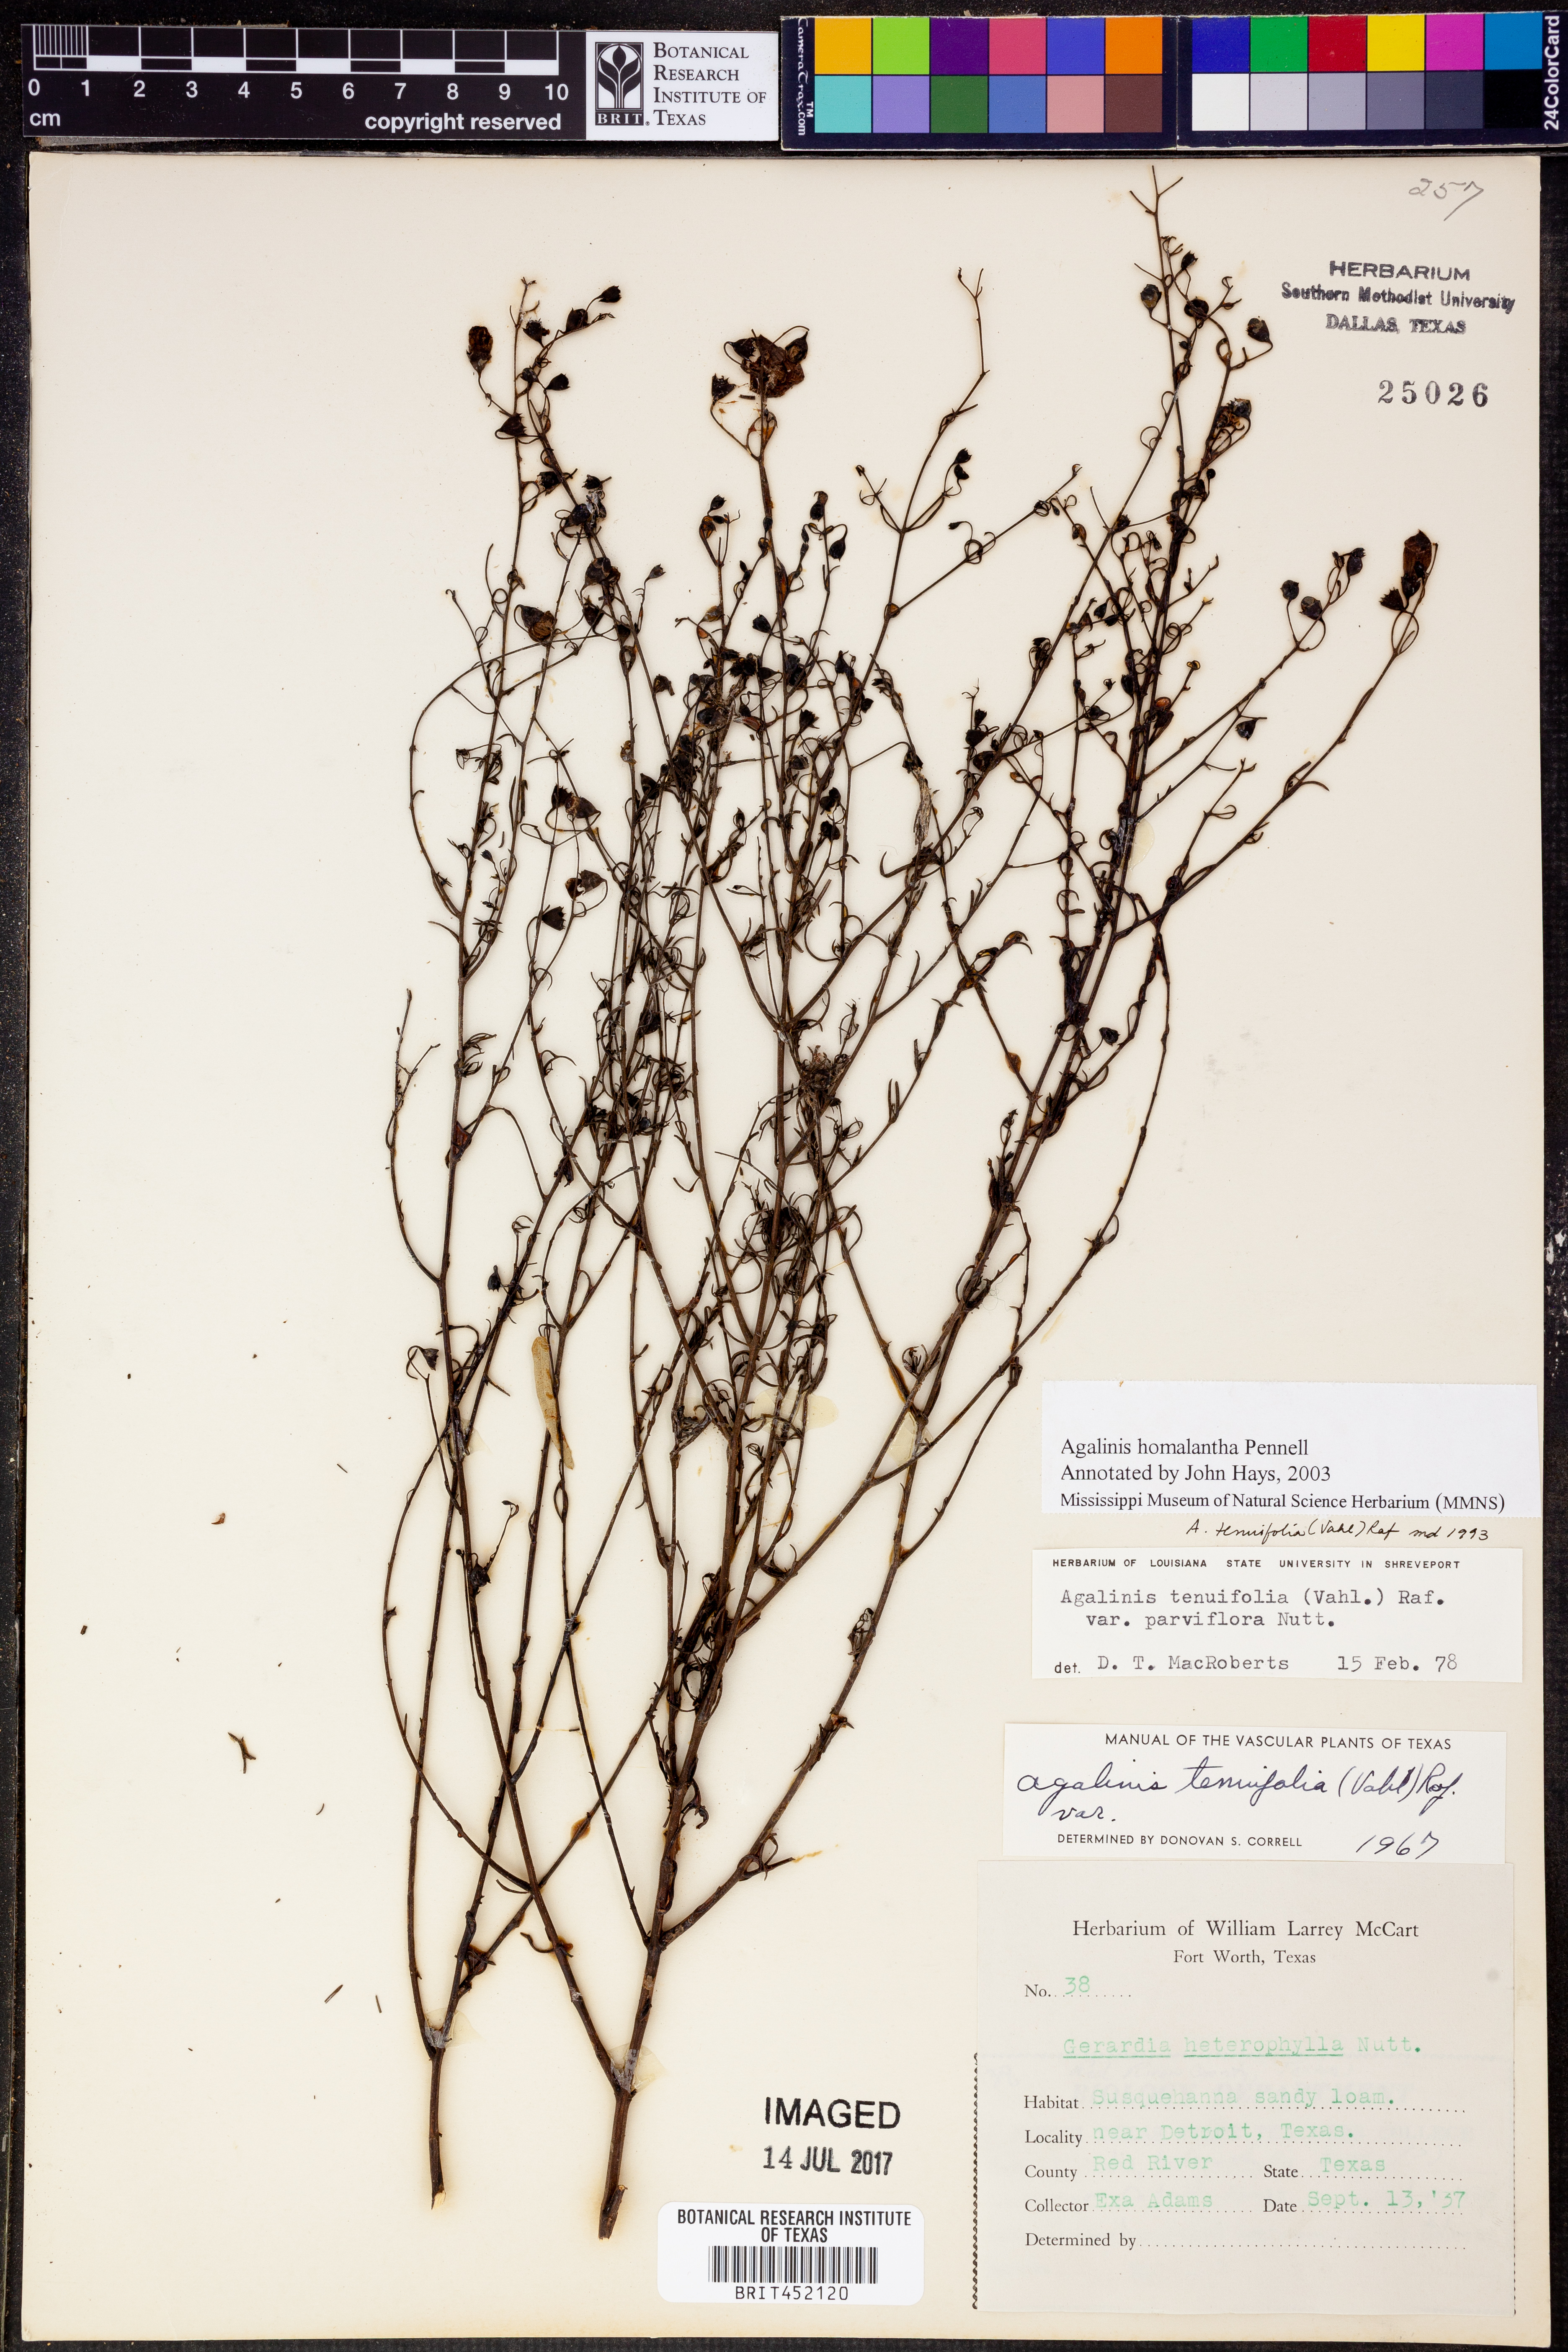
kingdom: Plantae
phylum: Tracheophyta
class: Magnoliopsida
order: Lamiales
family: Orobanchaceae
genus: Agalinis
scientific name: Agalinis homalantha
